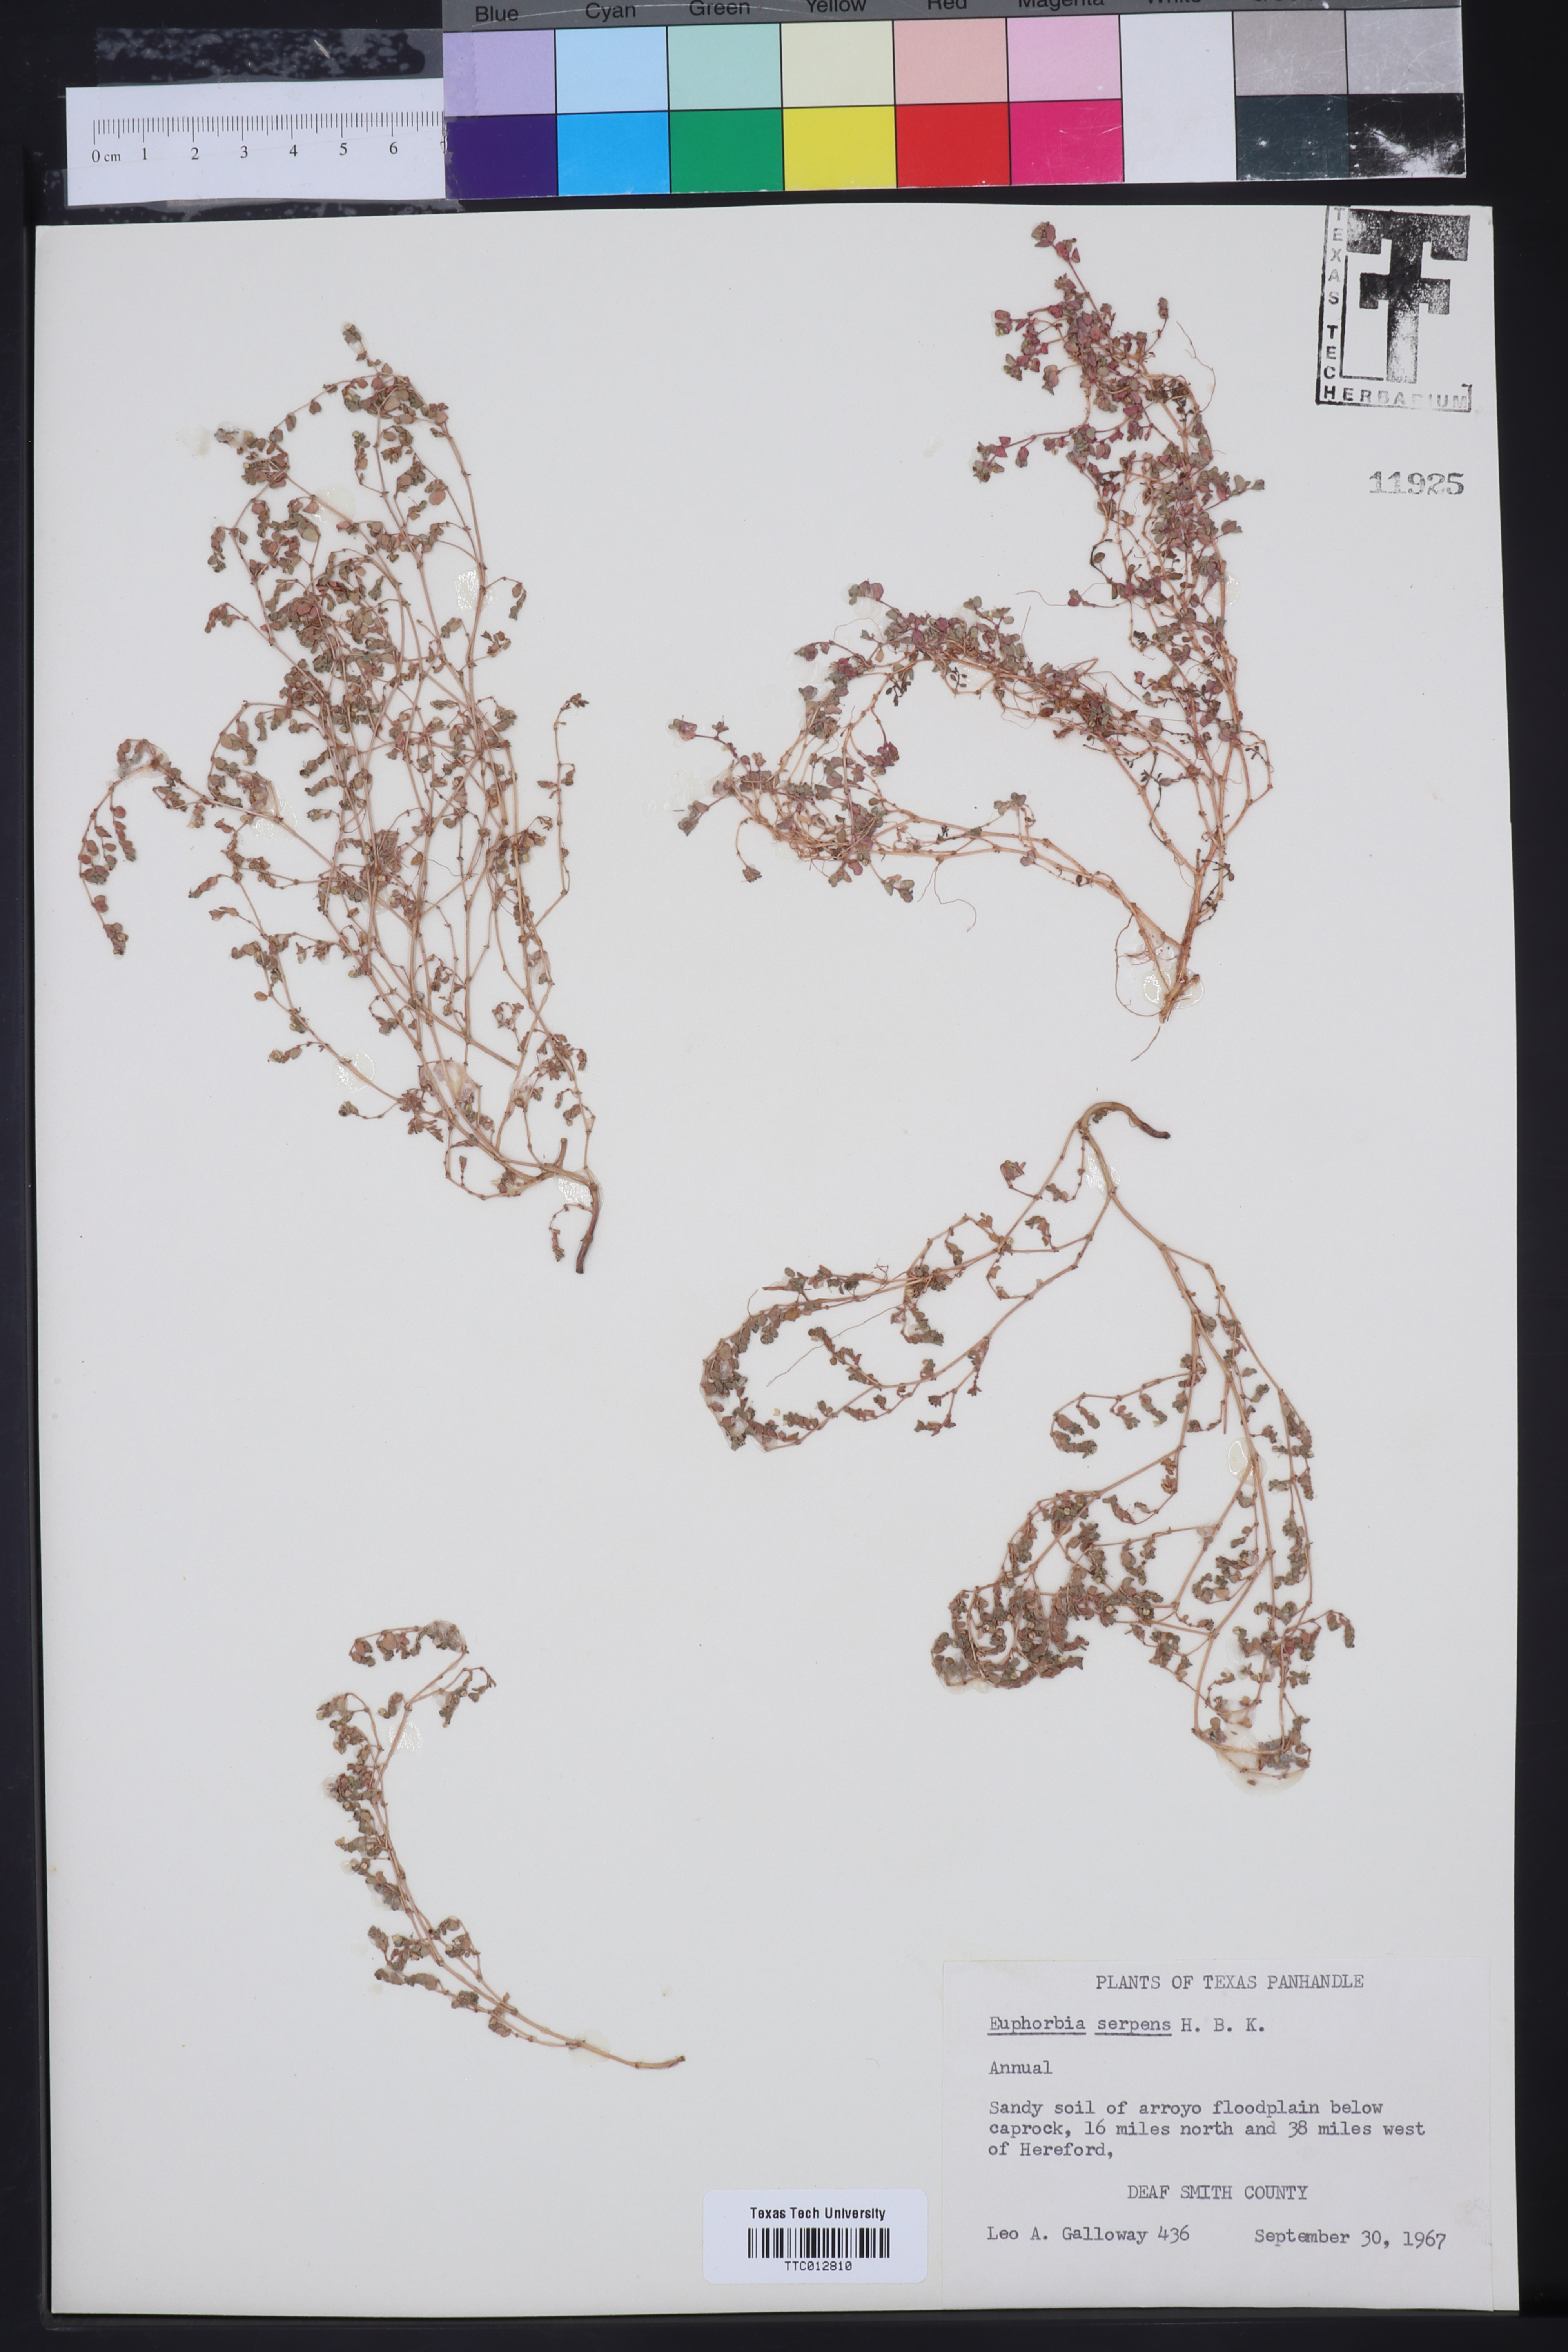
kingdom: Plantae
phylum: Tracheophyta
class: Magnoliopsida
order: Malpighiales
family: Euphorbiaceae
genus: Euphorbia
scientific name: Euphorbia serpens
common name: Matted sandmat
